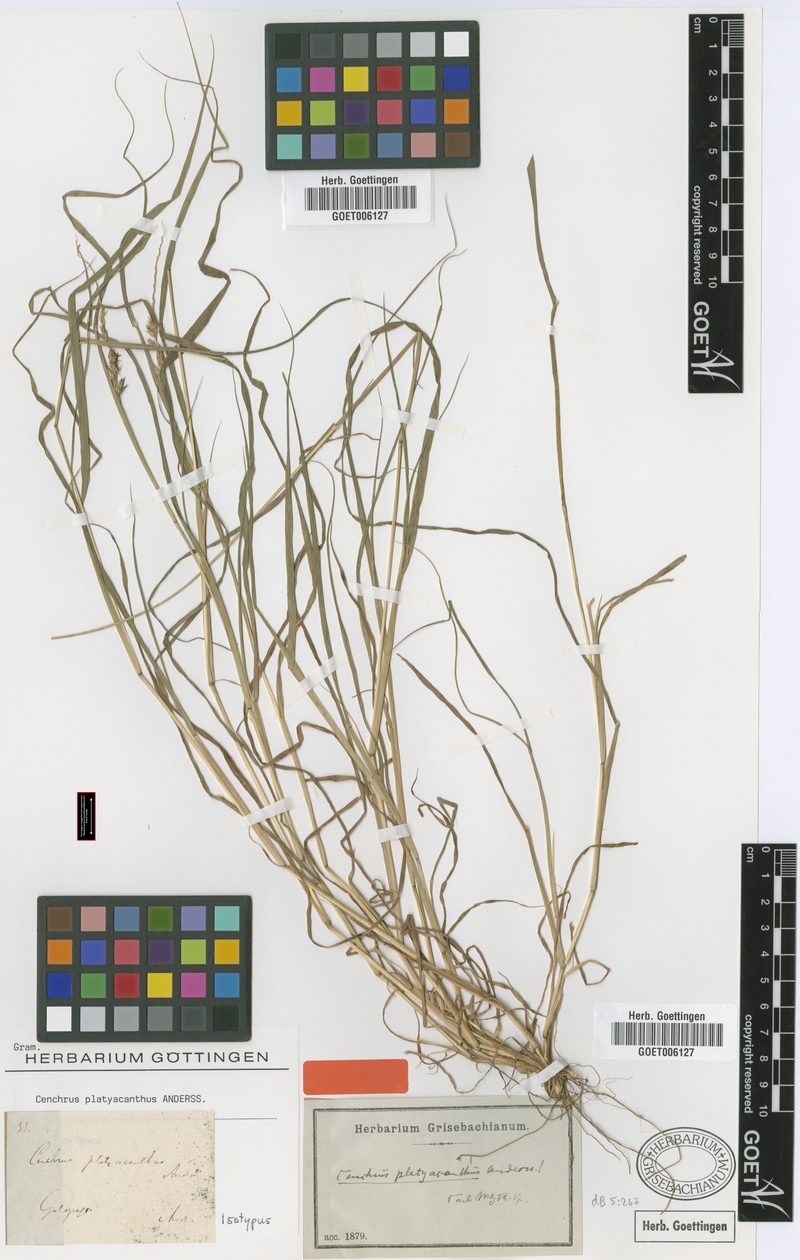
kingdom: Plantae
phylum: Tracheophyta
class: Liliopsida
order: Poales
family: Poaceae
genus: Cenchrus
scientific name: Cenchrus platyacanthus
